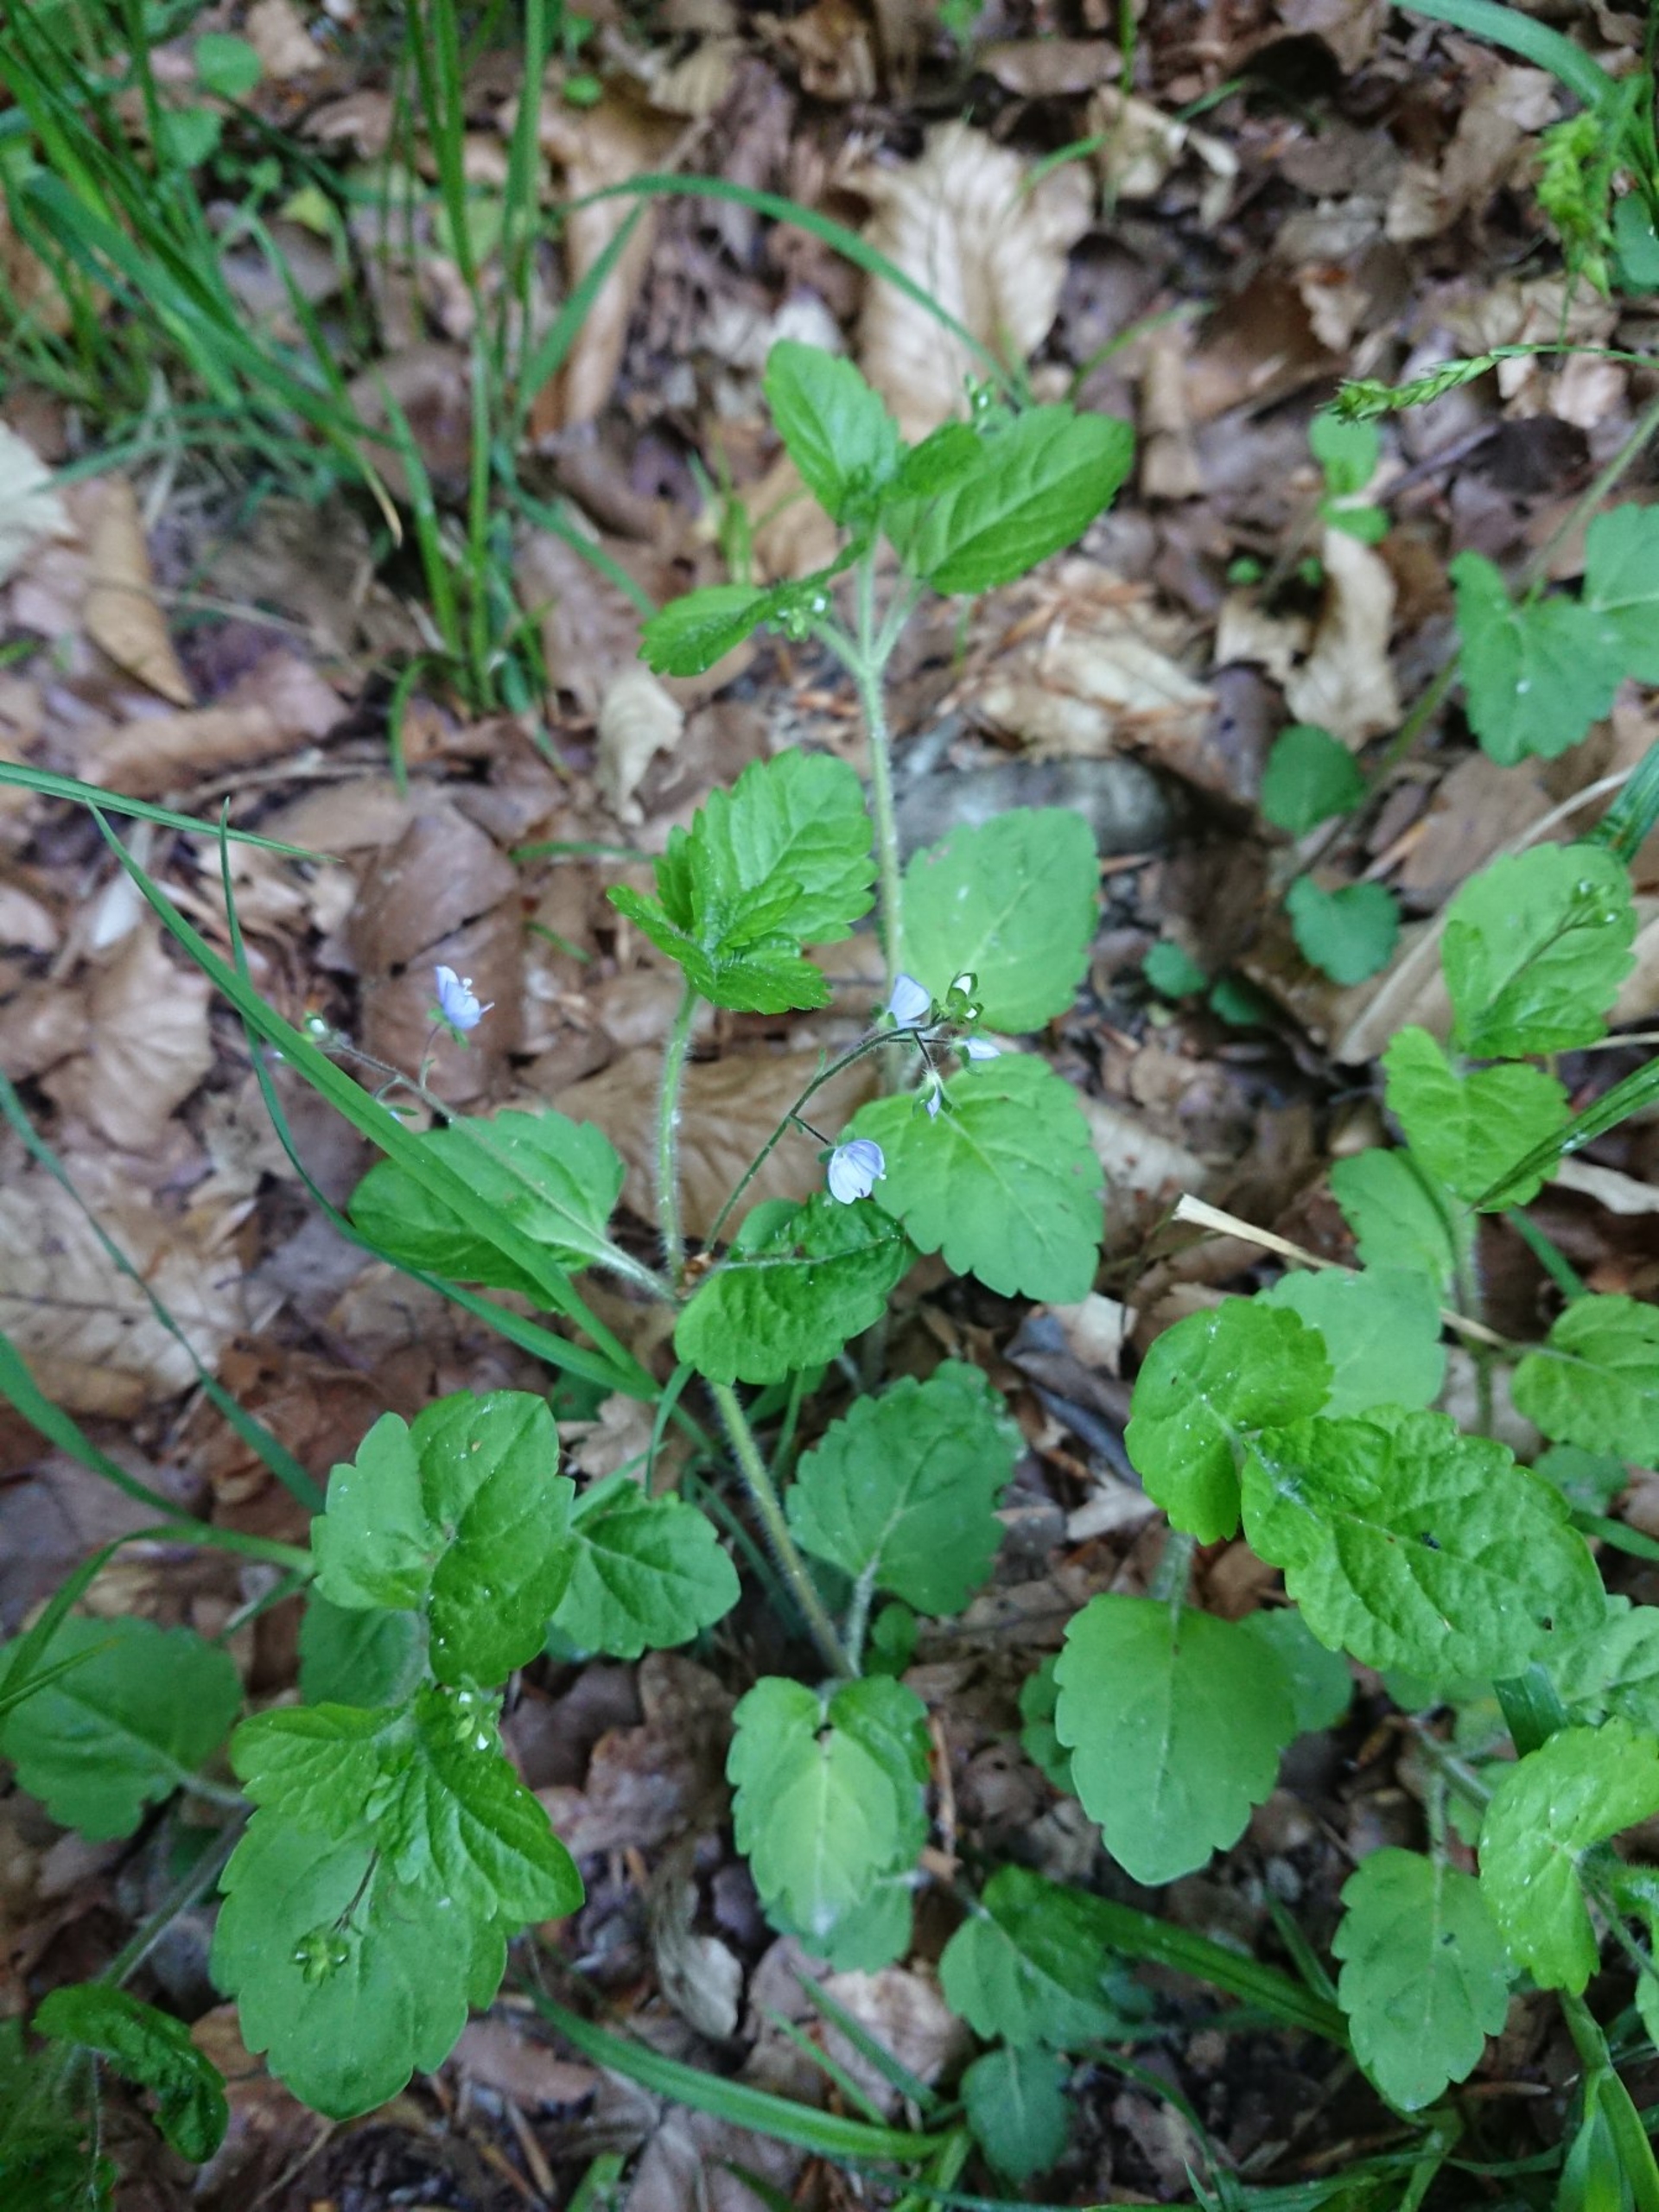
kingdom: Plantae
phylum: Tracheophyta
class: Magnoliopsida
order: Lamiales
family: Plantaginaceae
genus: Veronica
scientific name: Veronica montana
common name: Bjerg-ærenpris
